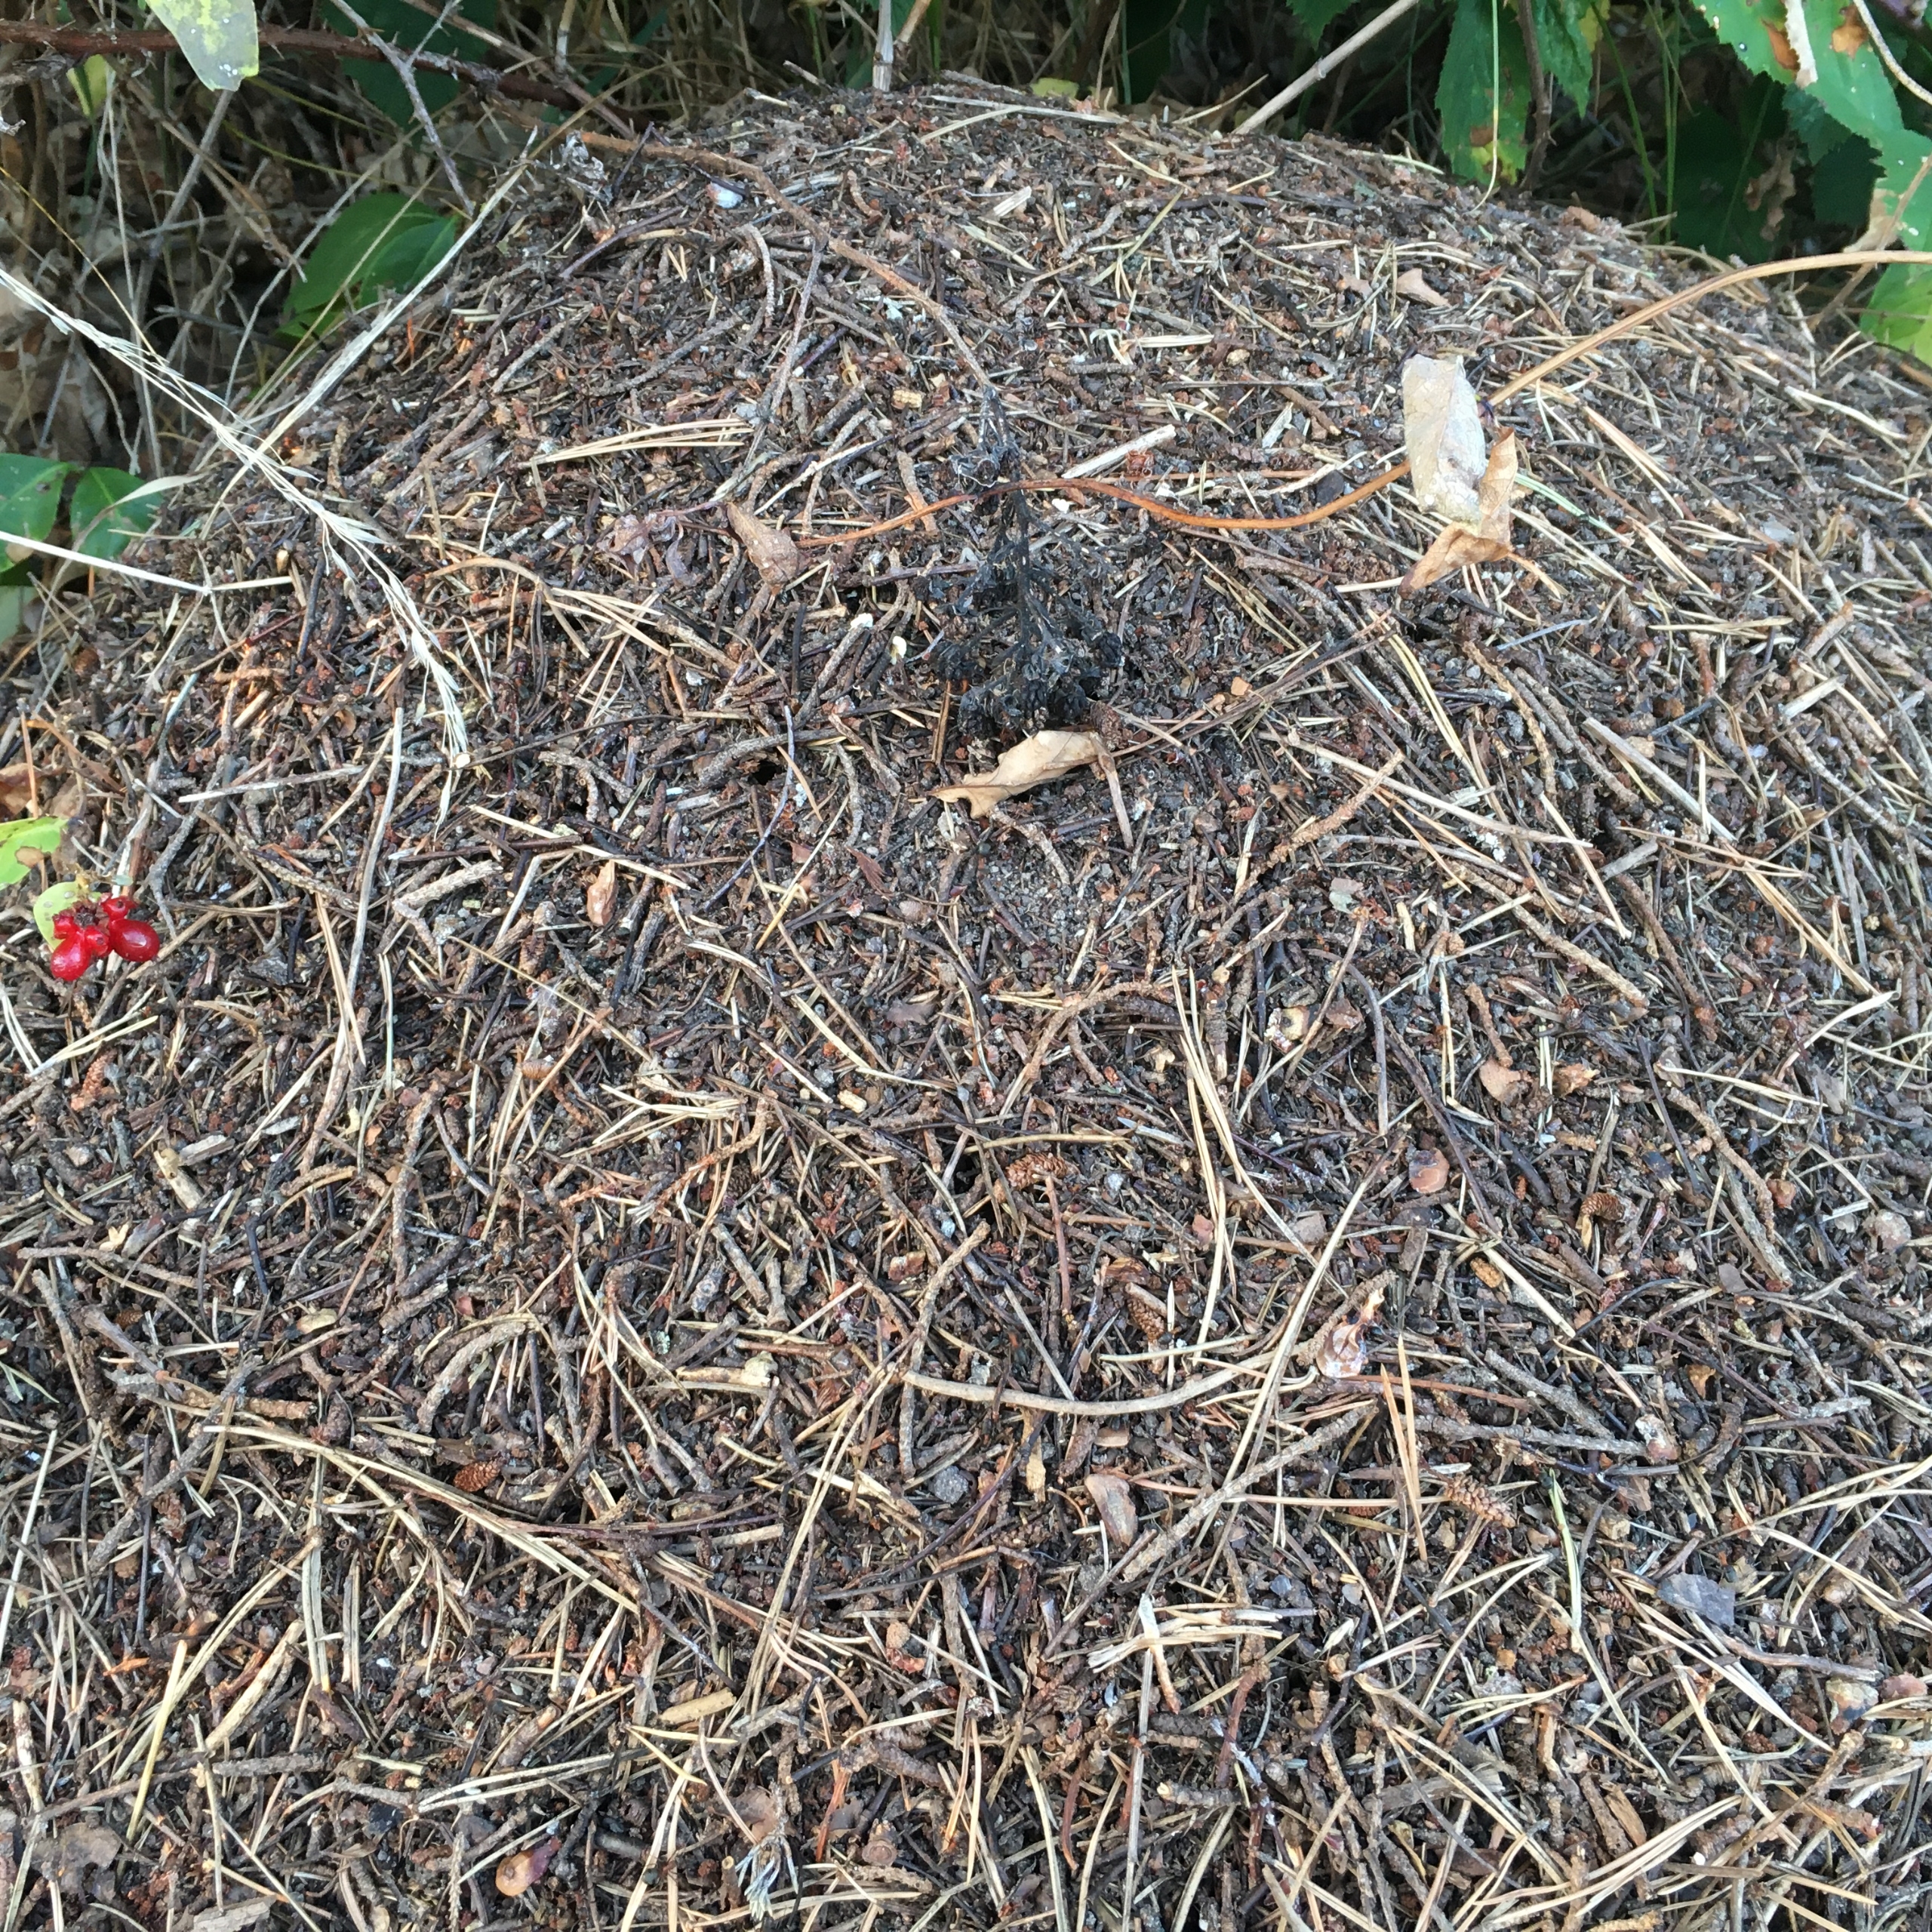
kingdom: Animalia
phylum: Arthropoda
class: Insecta
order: Hymenoptera
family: Formicidae
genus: Formica
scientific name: Formica
